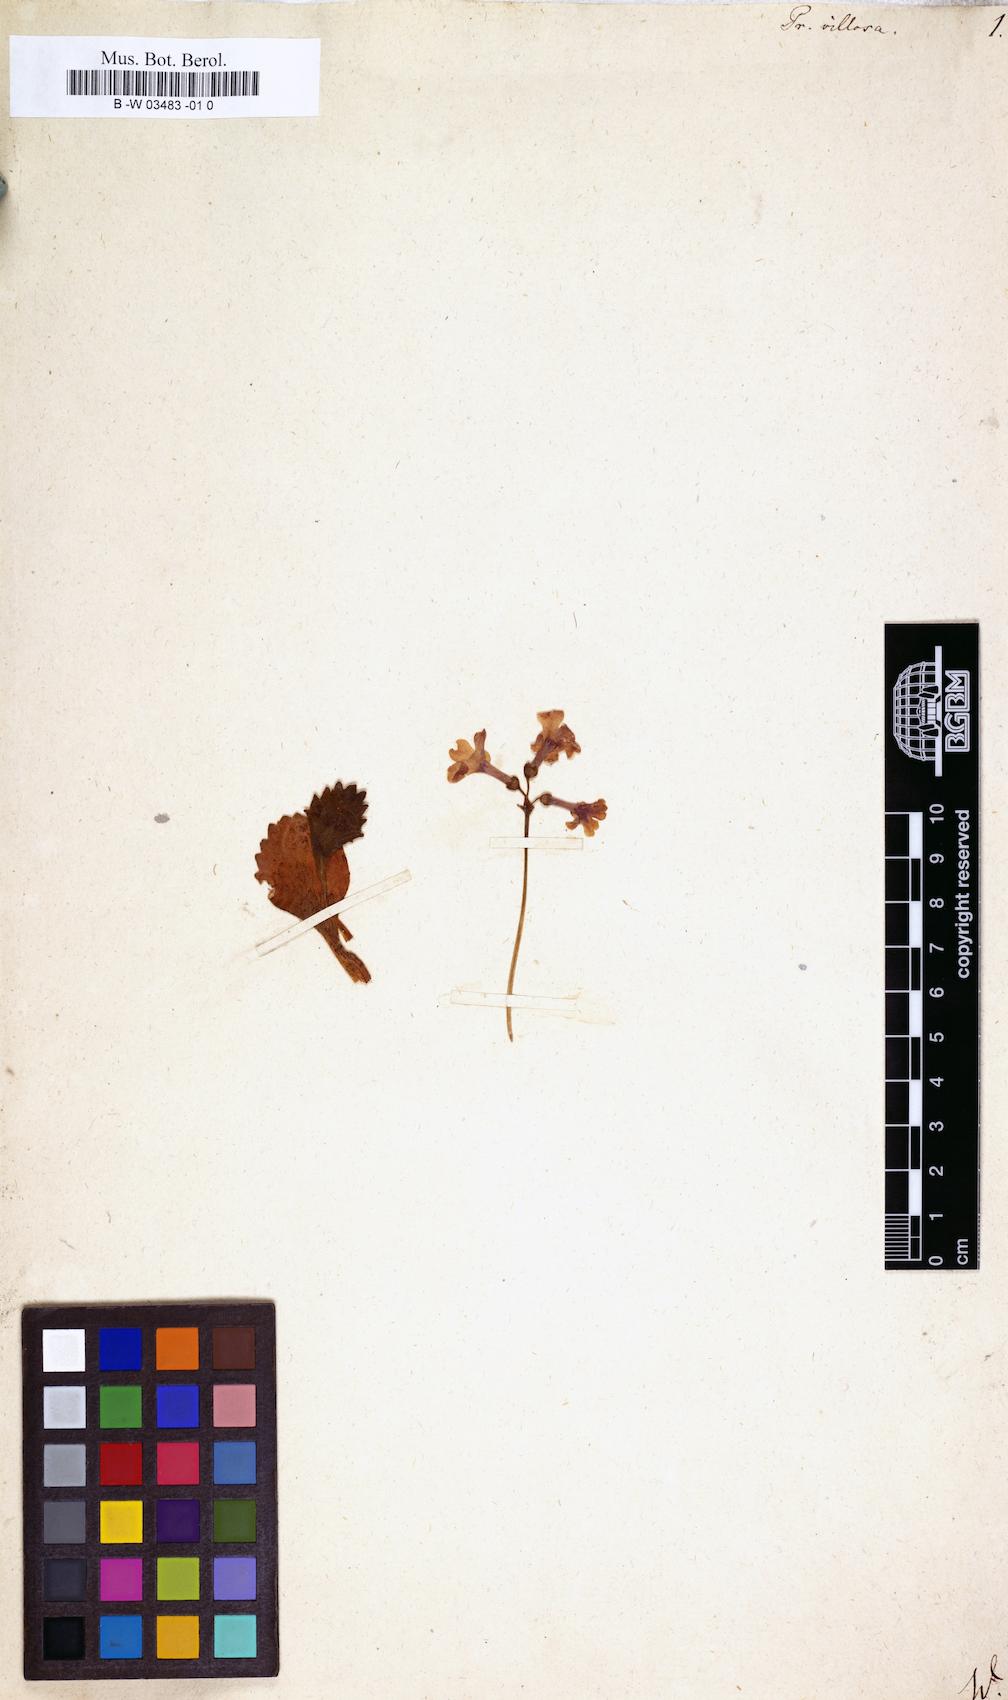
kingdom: Plantae
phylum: Tracheophyta
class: Magnoliopsida
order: Ericales
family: Primulaceae
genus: Primula
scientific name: Primula villosa
